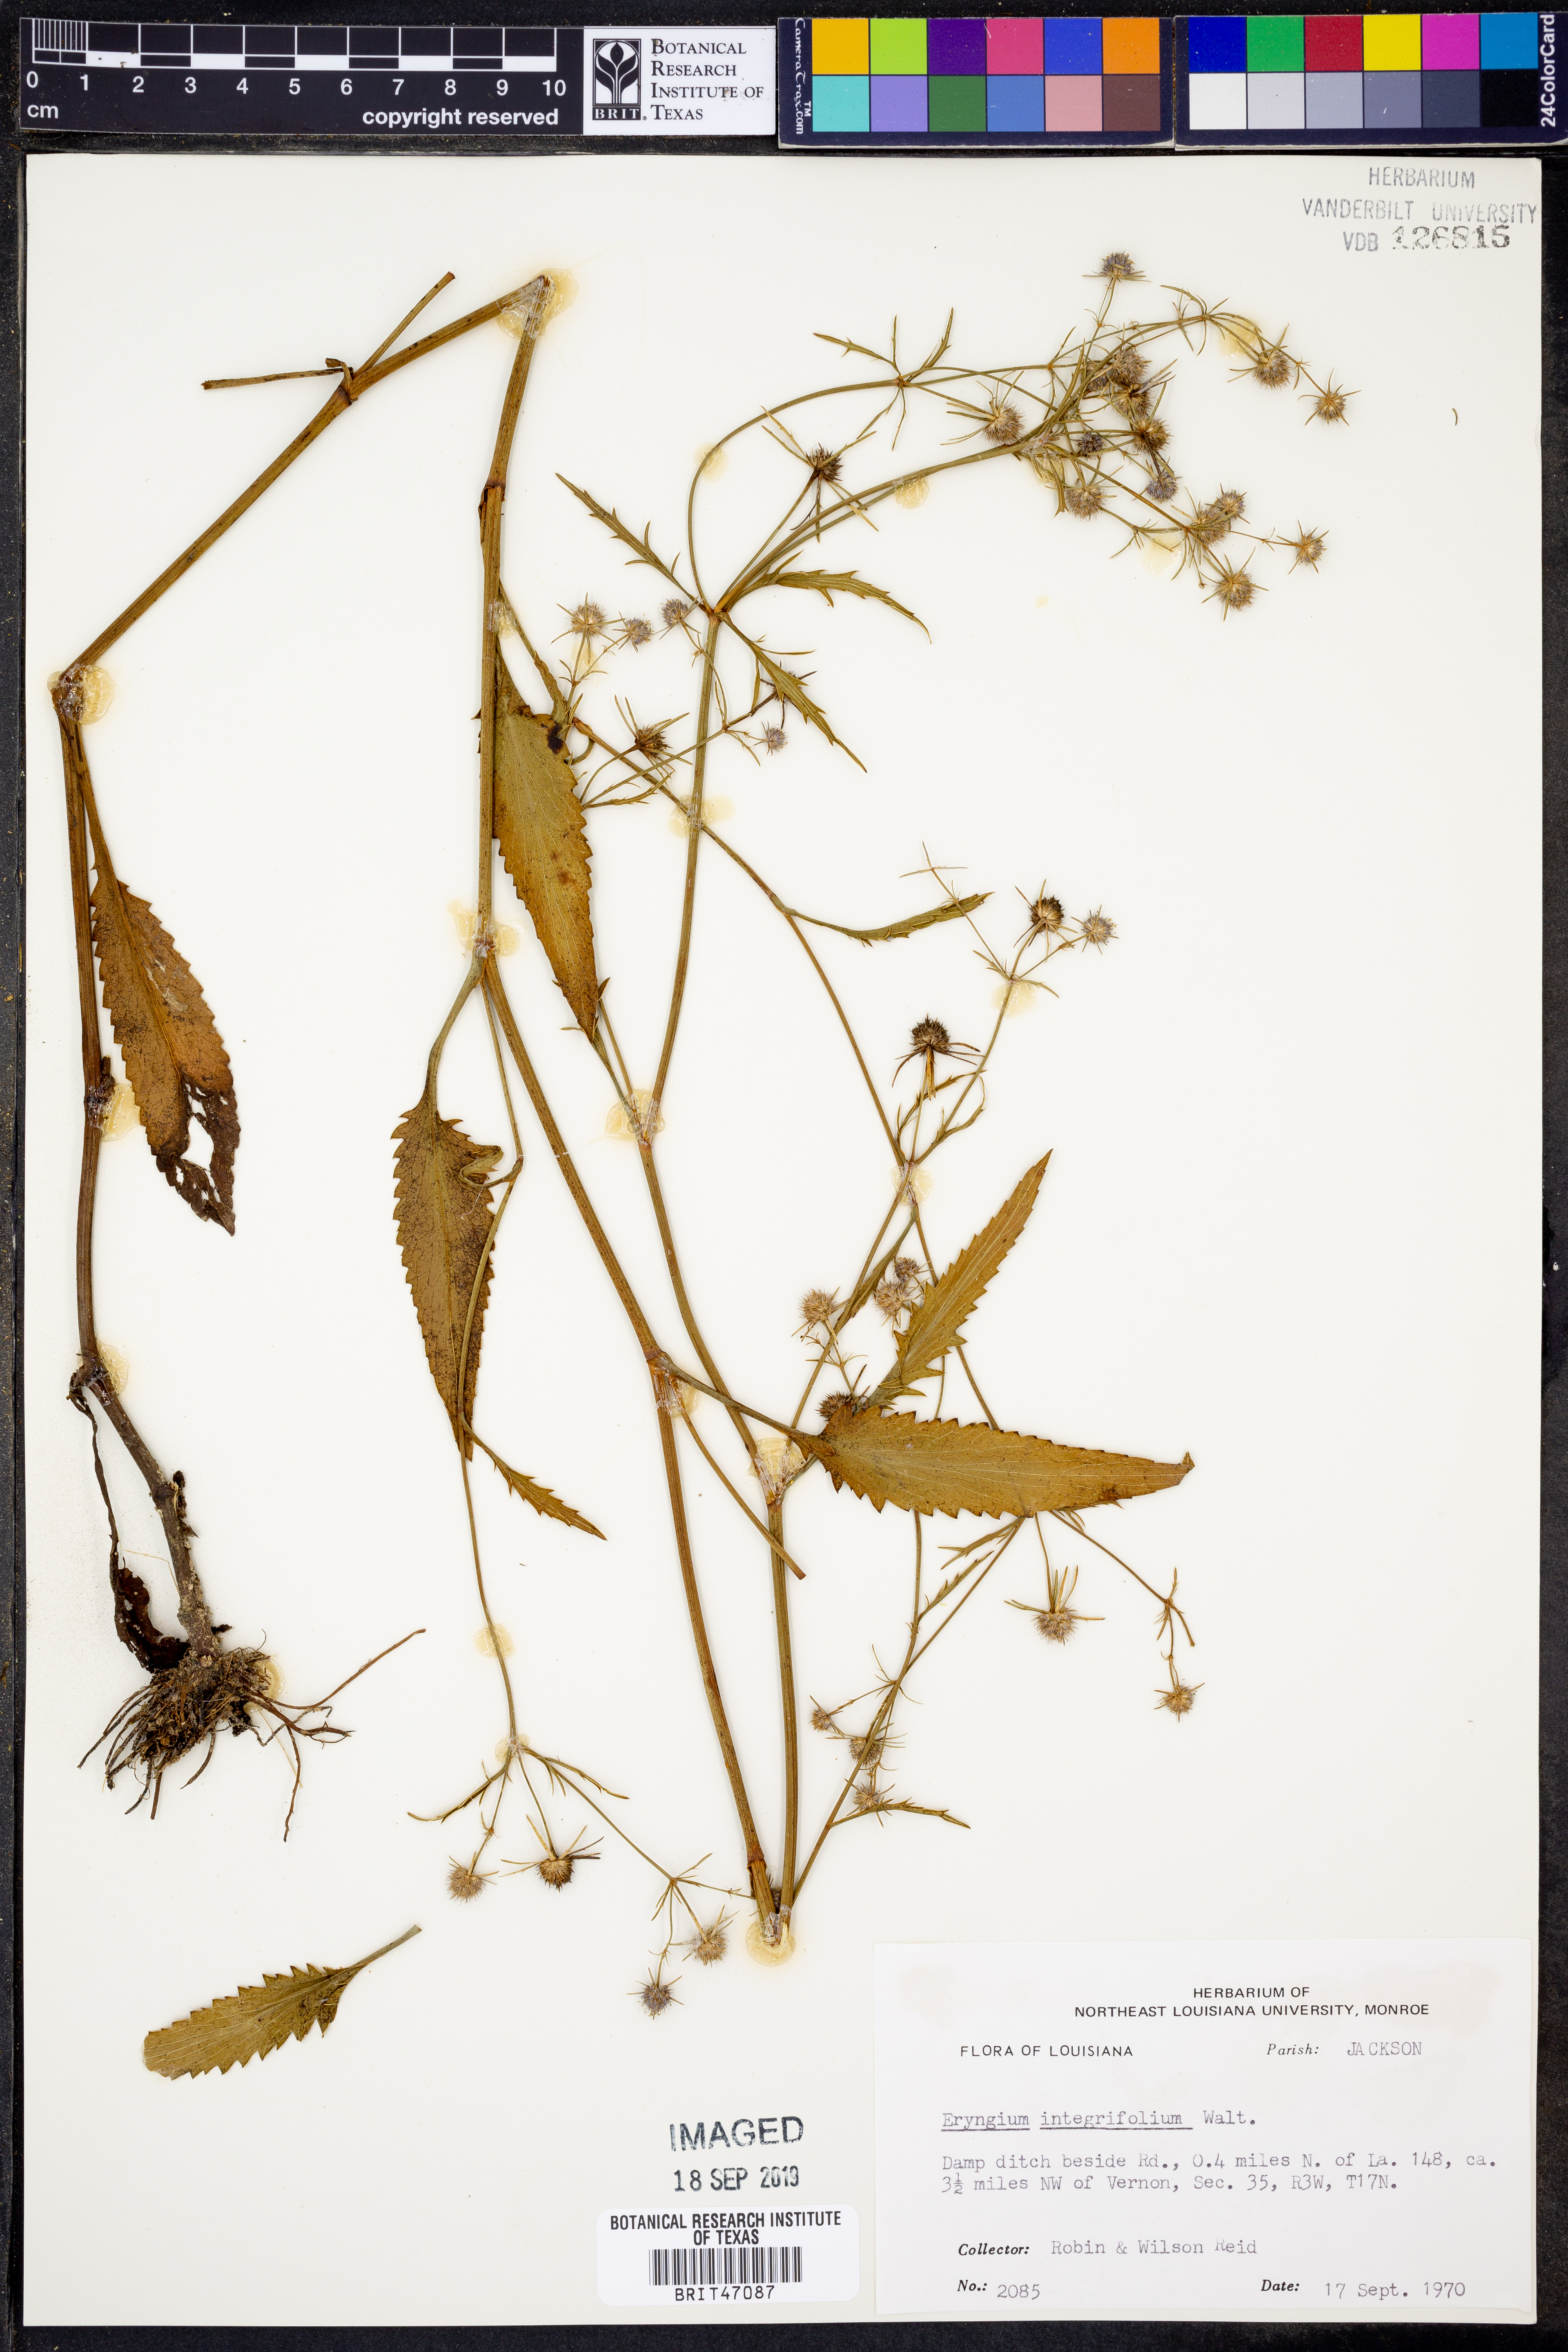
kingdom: Plantae
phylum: Tracheophyta
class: Magnoliopsida
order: Apiales
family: Apiaceae
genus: Eryngium
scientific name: Eryngium integrifolium
